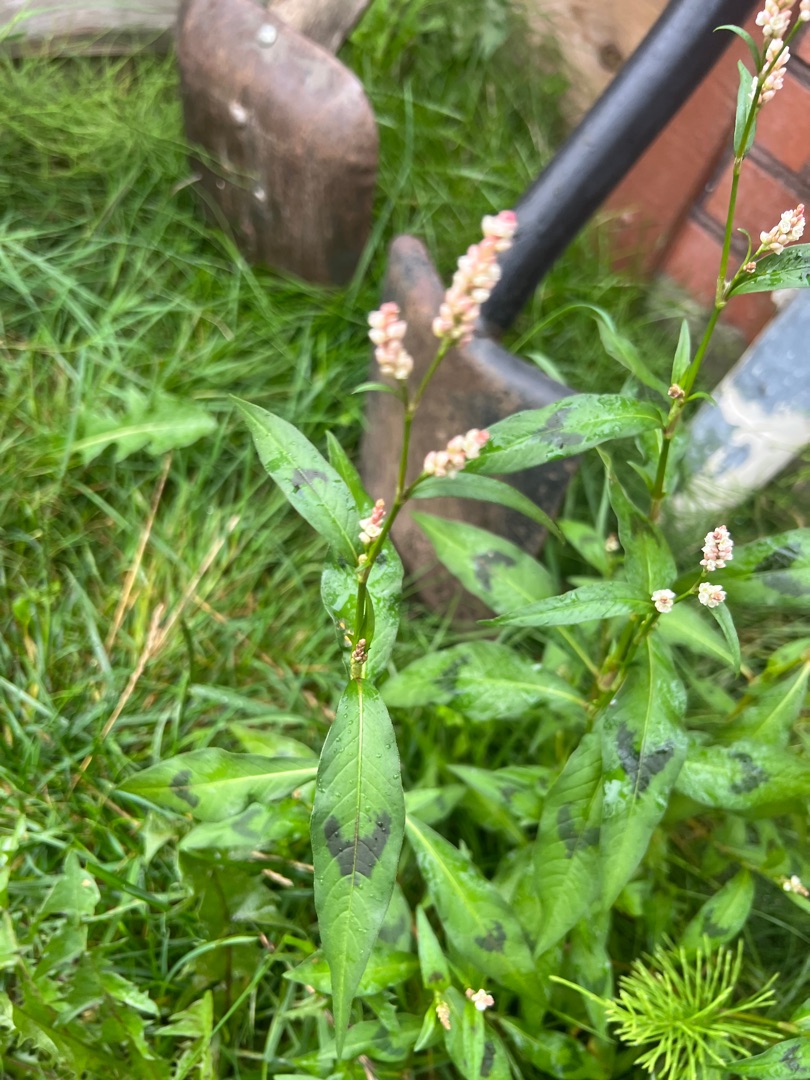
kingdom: Plantae
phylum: Tracheophyta
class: Magnoliopsida
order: Caryophyllales
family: Polygonaceae
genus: Persicaria
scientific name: Persicaria maculosa
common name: Fersken-pileurt
